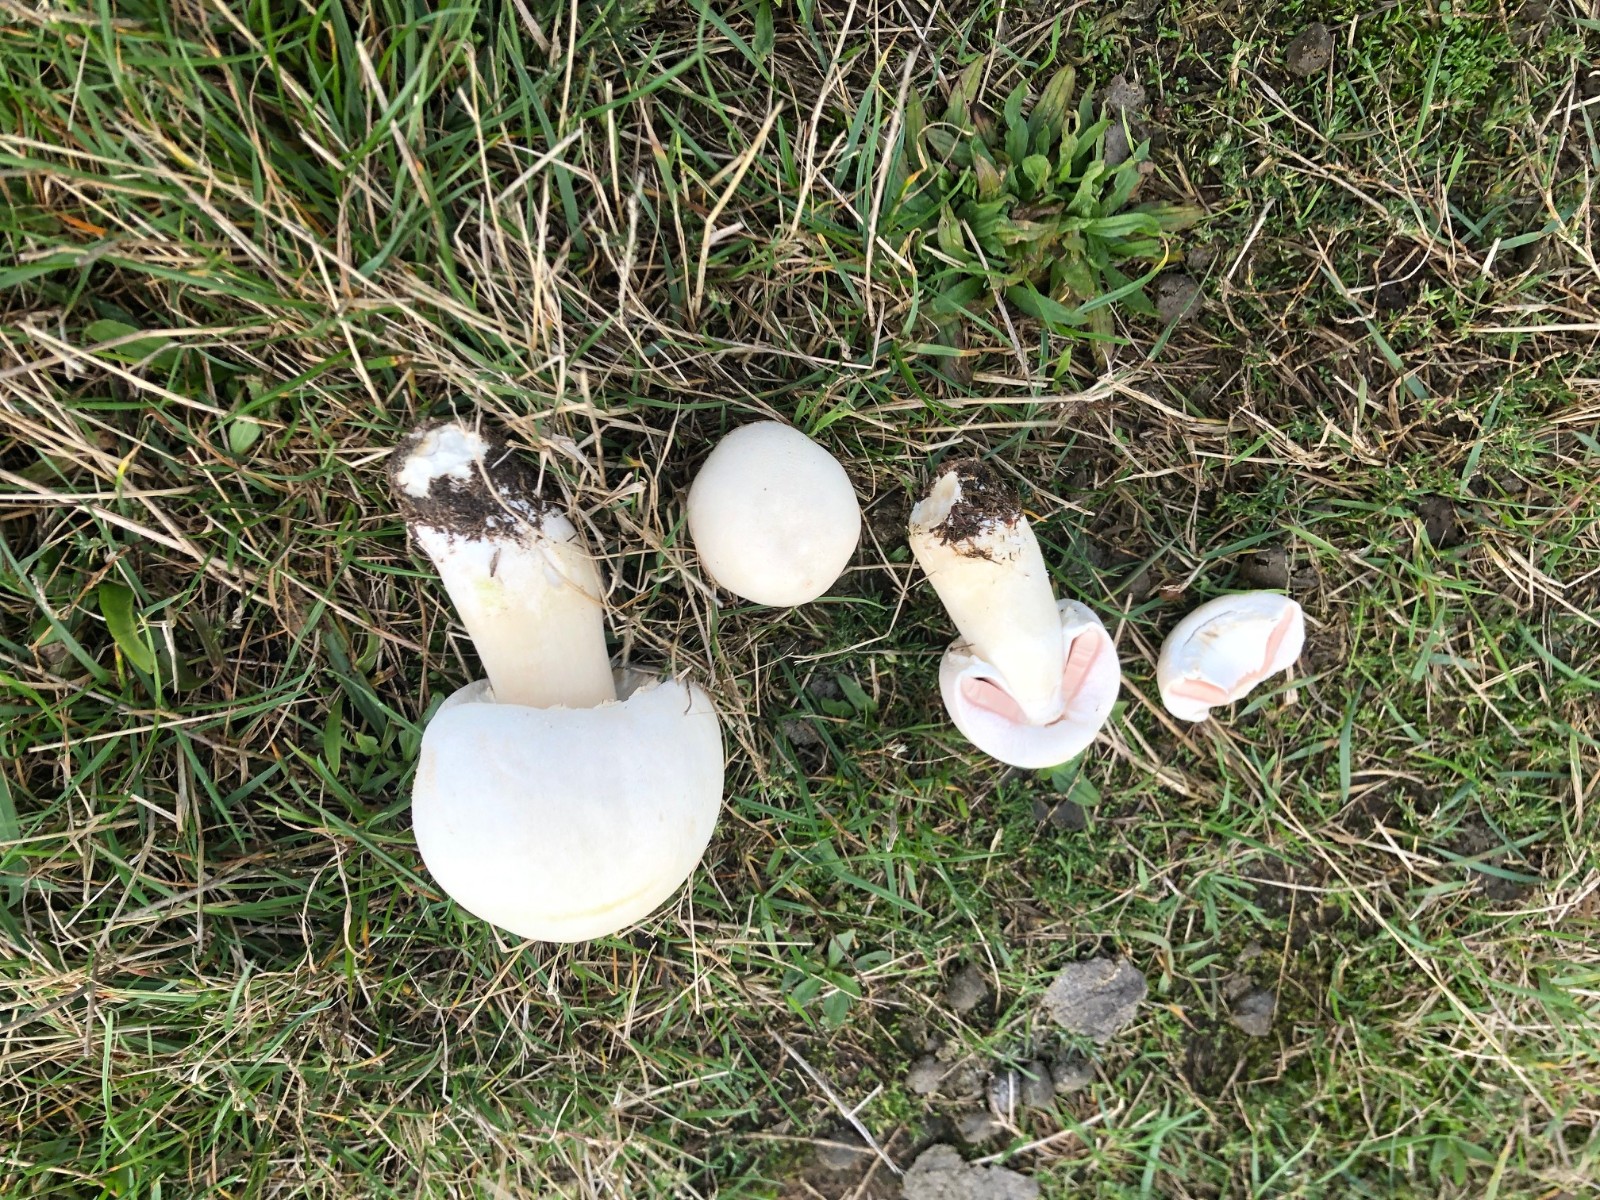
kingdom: Fungi
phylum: Basidiomycota
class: Agaricomycetes
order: Agaricales
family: Agaricaceae
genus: Agaricus
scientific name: Agaricus
